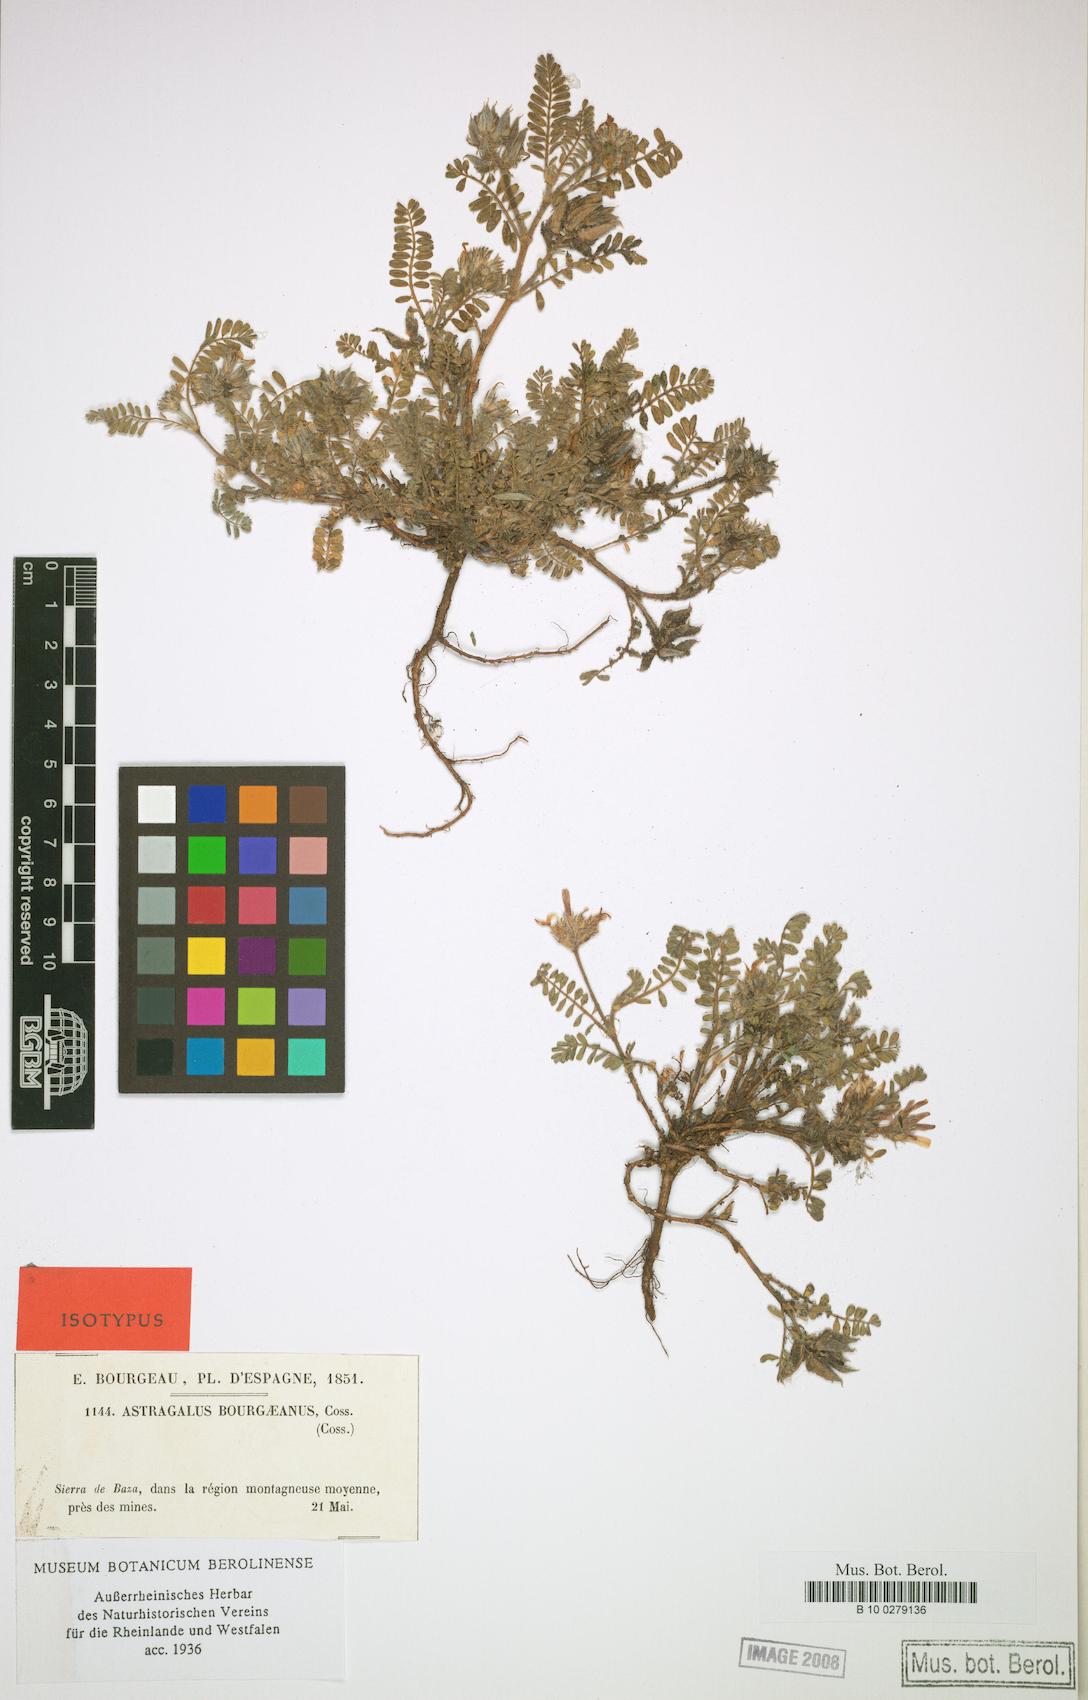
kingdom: Plantae
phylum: Tracheophyta
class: Magnoliopsida
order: Fabales
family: Fabaceae
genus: Astragalus
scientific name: Astragalus bourgaeanus
